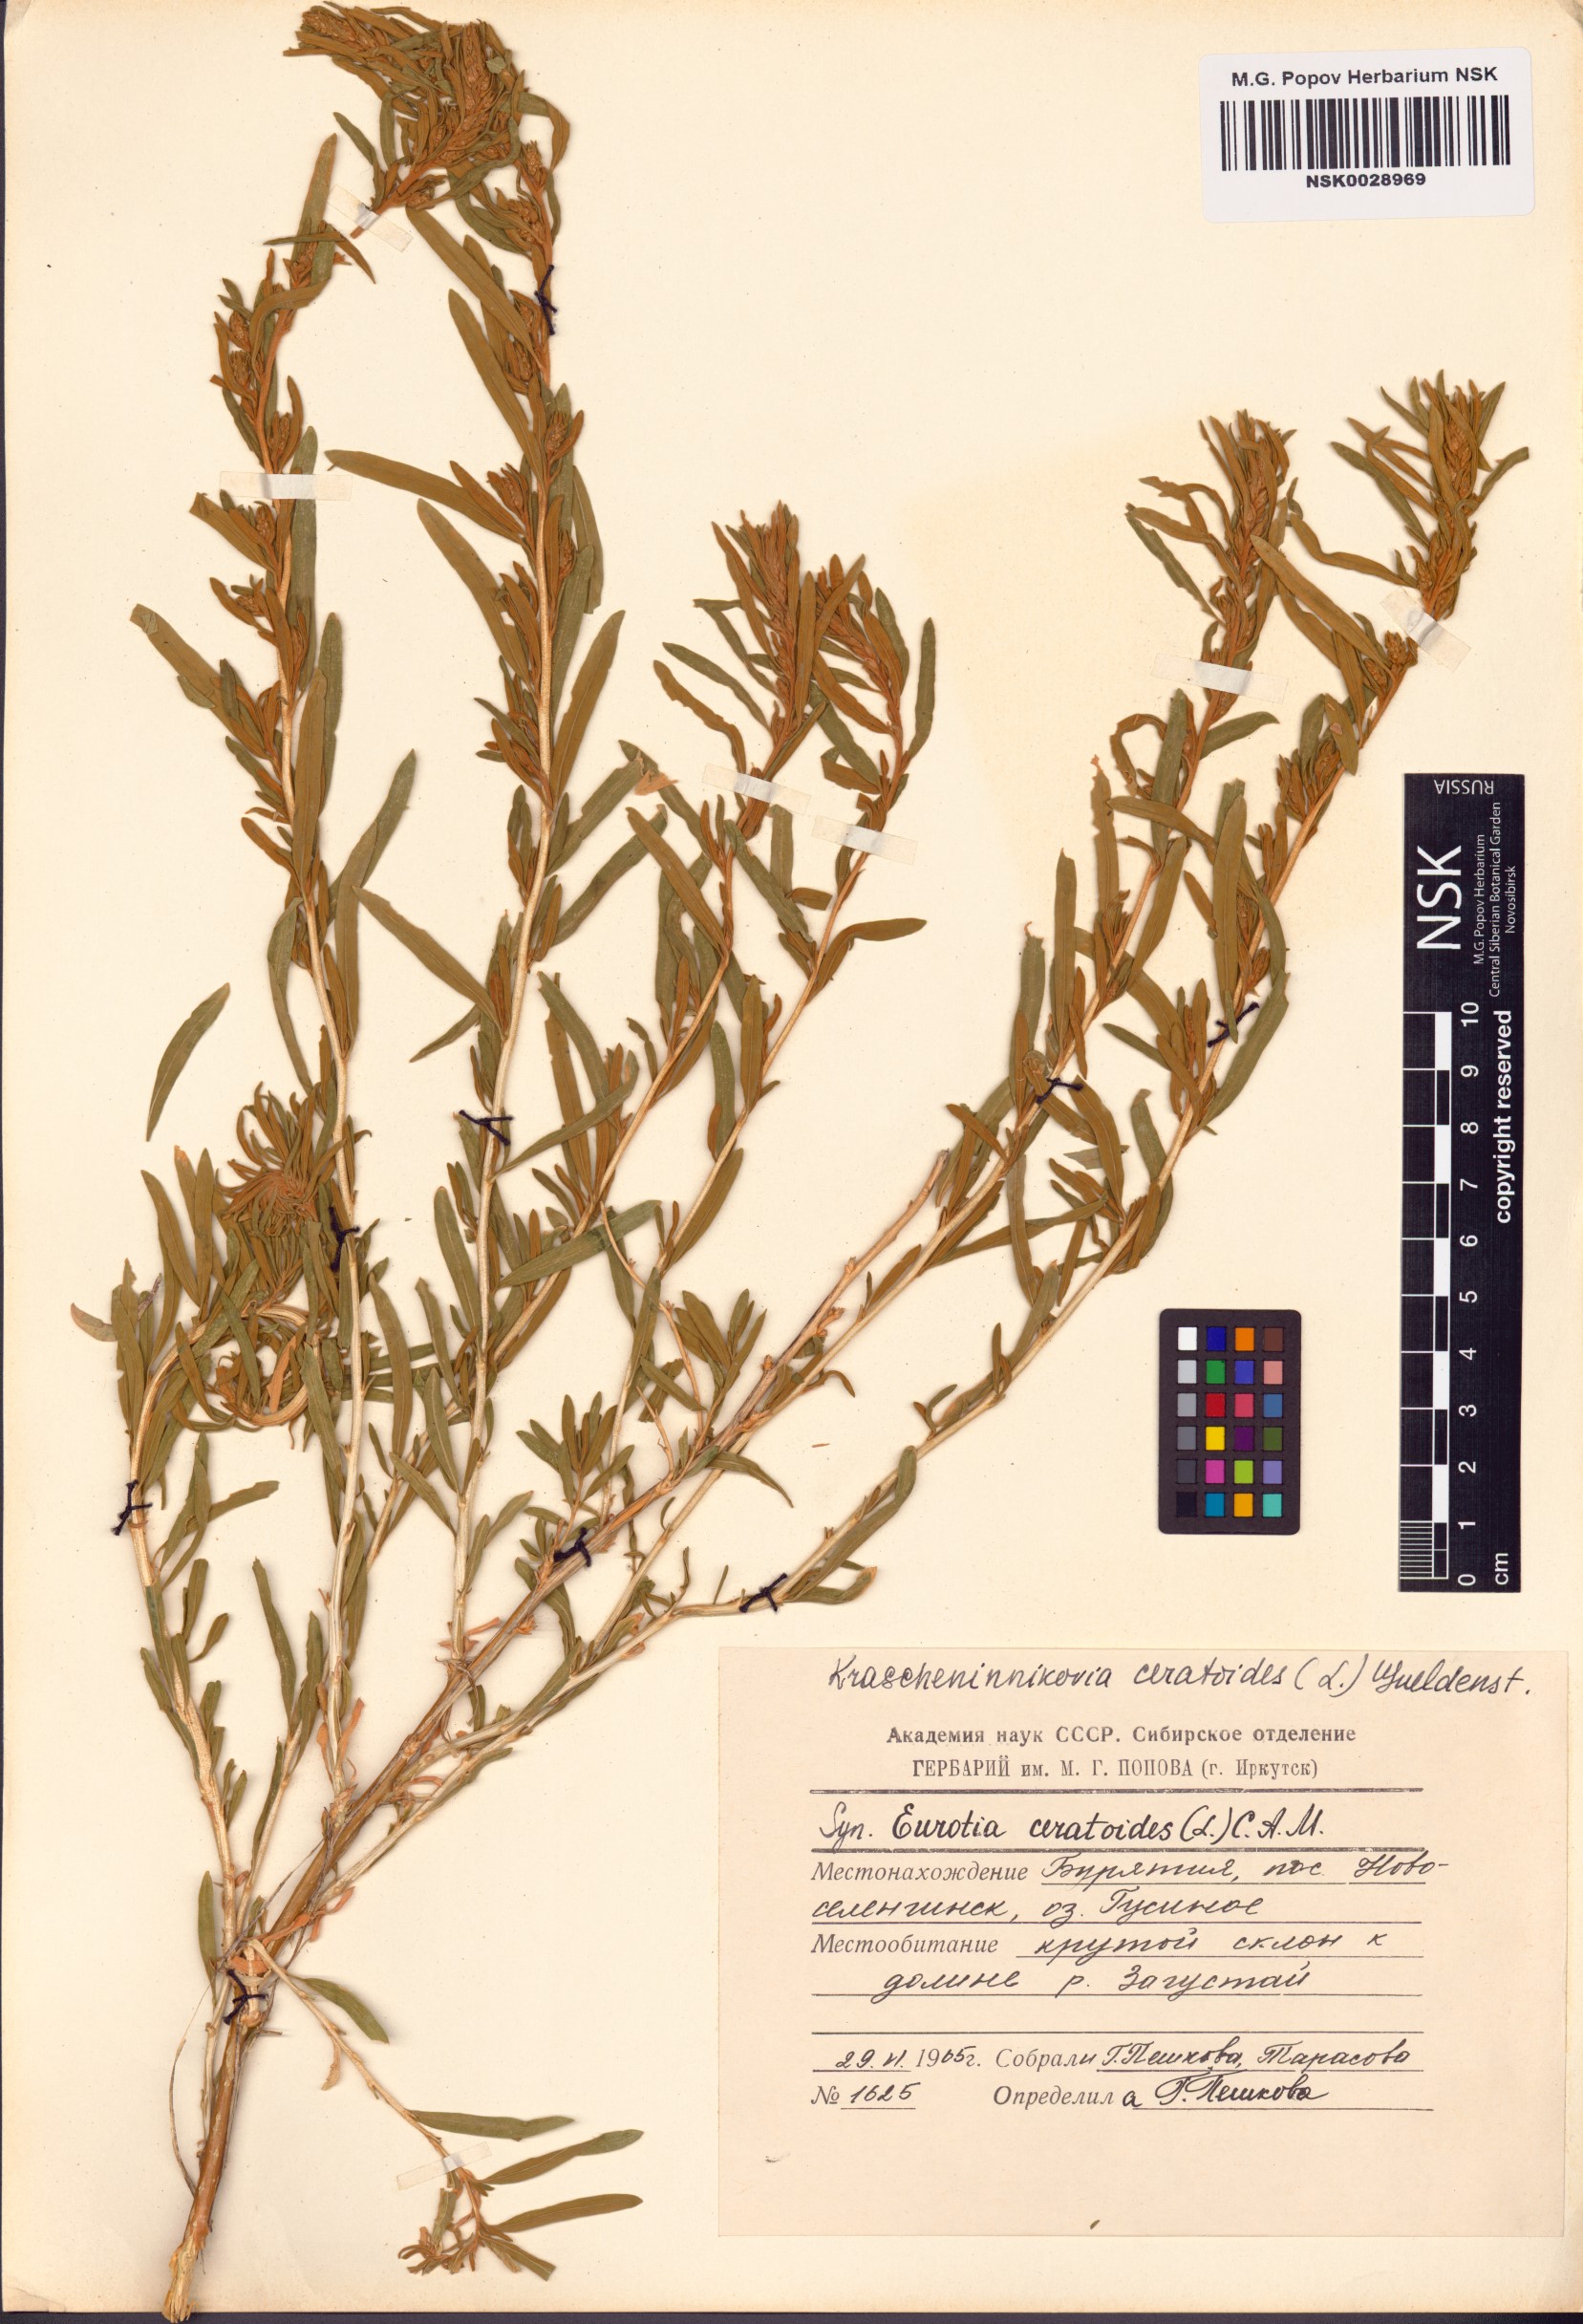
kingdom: Plantae
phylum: Tracheophyta
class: Magnoliopsida
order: Caryophyllales
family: Amaranthaceae
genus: Krascheninnikovia
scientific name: Krascheninnikovia ceratoides
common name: Pamirian winterfat
